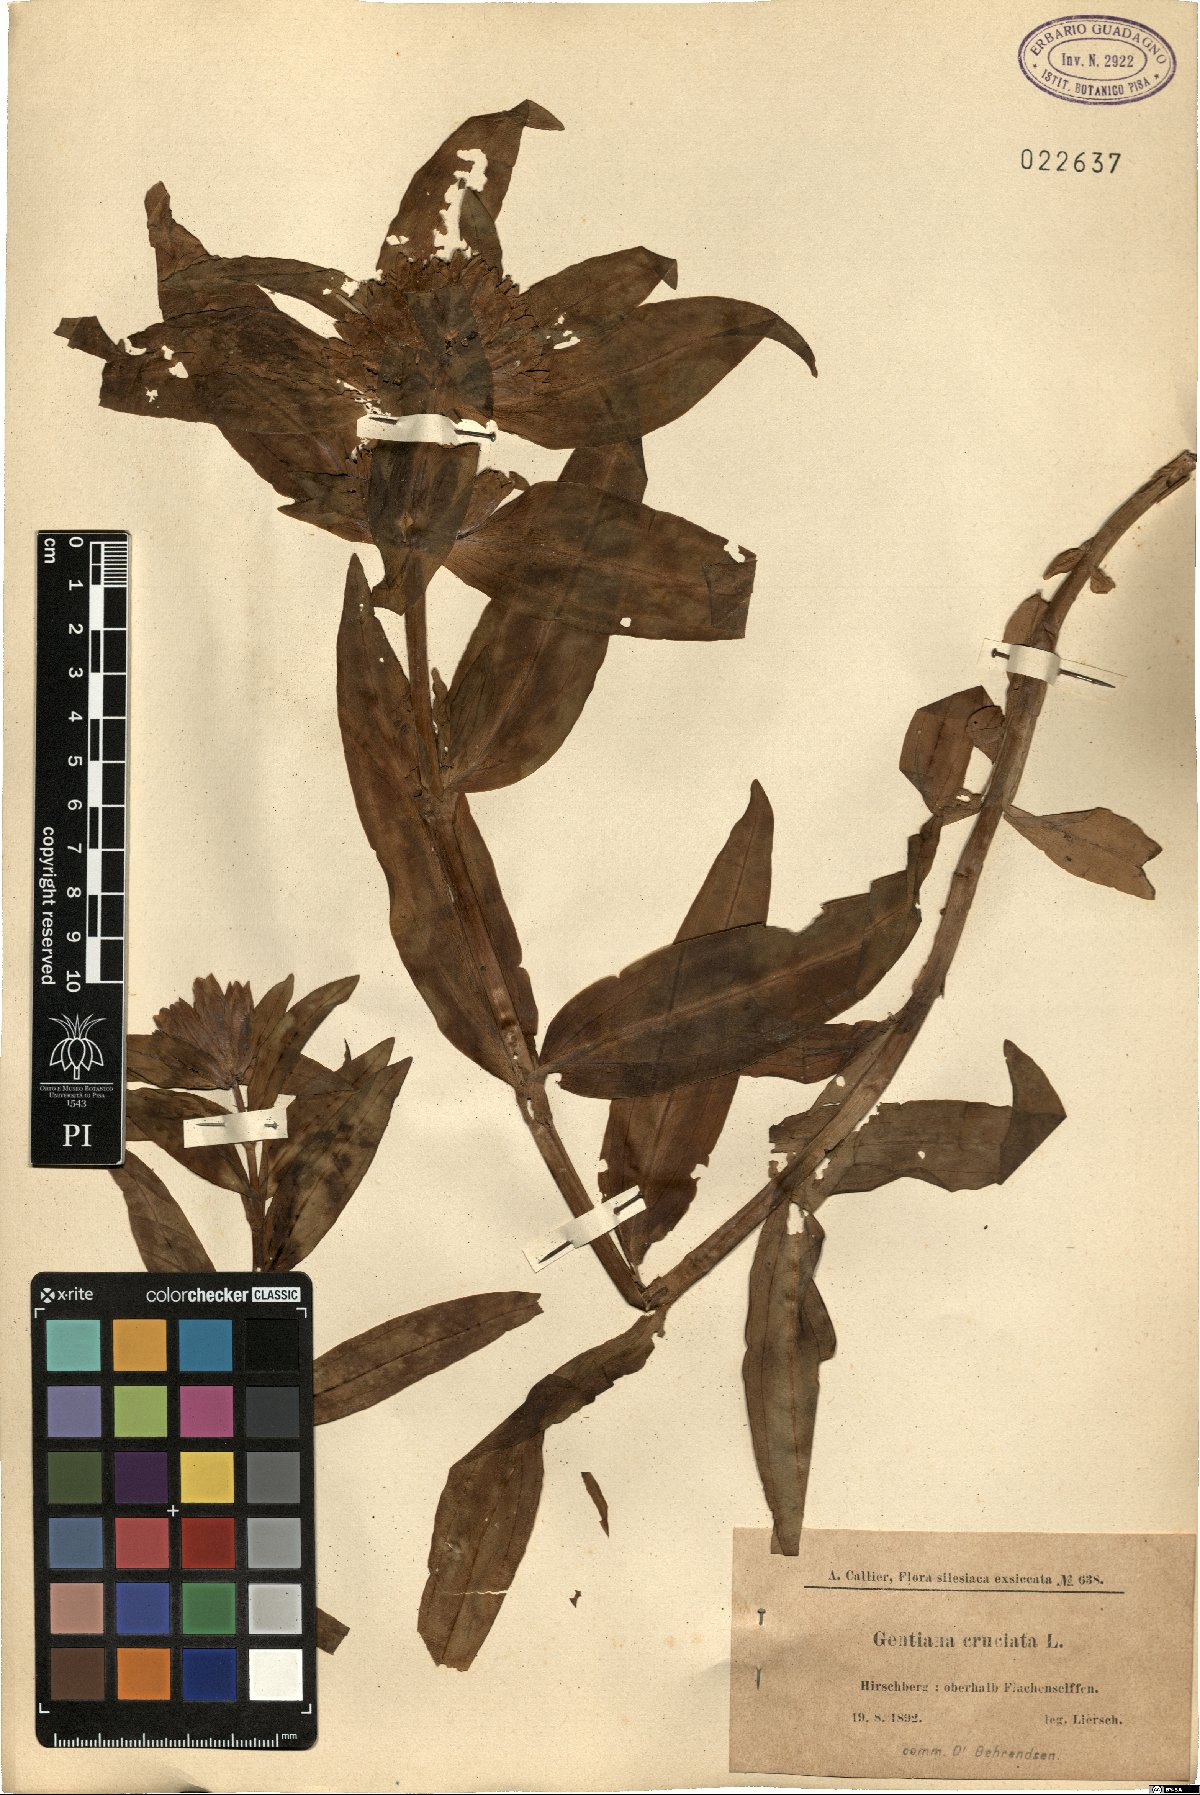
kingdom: Plantae
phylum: Tracheophyta
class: Magnoliopsida
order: Gentianales
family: Gentianaceae
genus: Gentiana
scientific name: Gentiana cruciata
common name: Cross gentian
